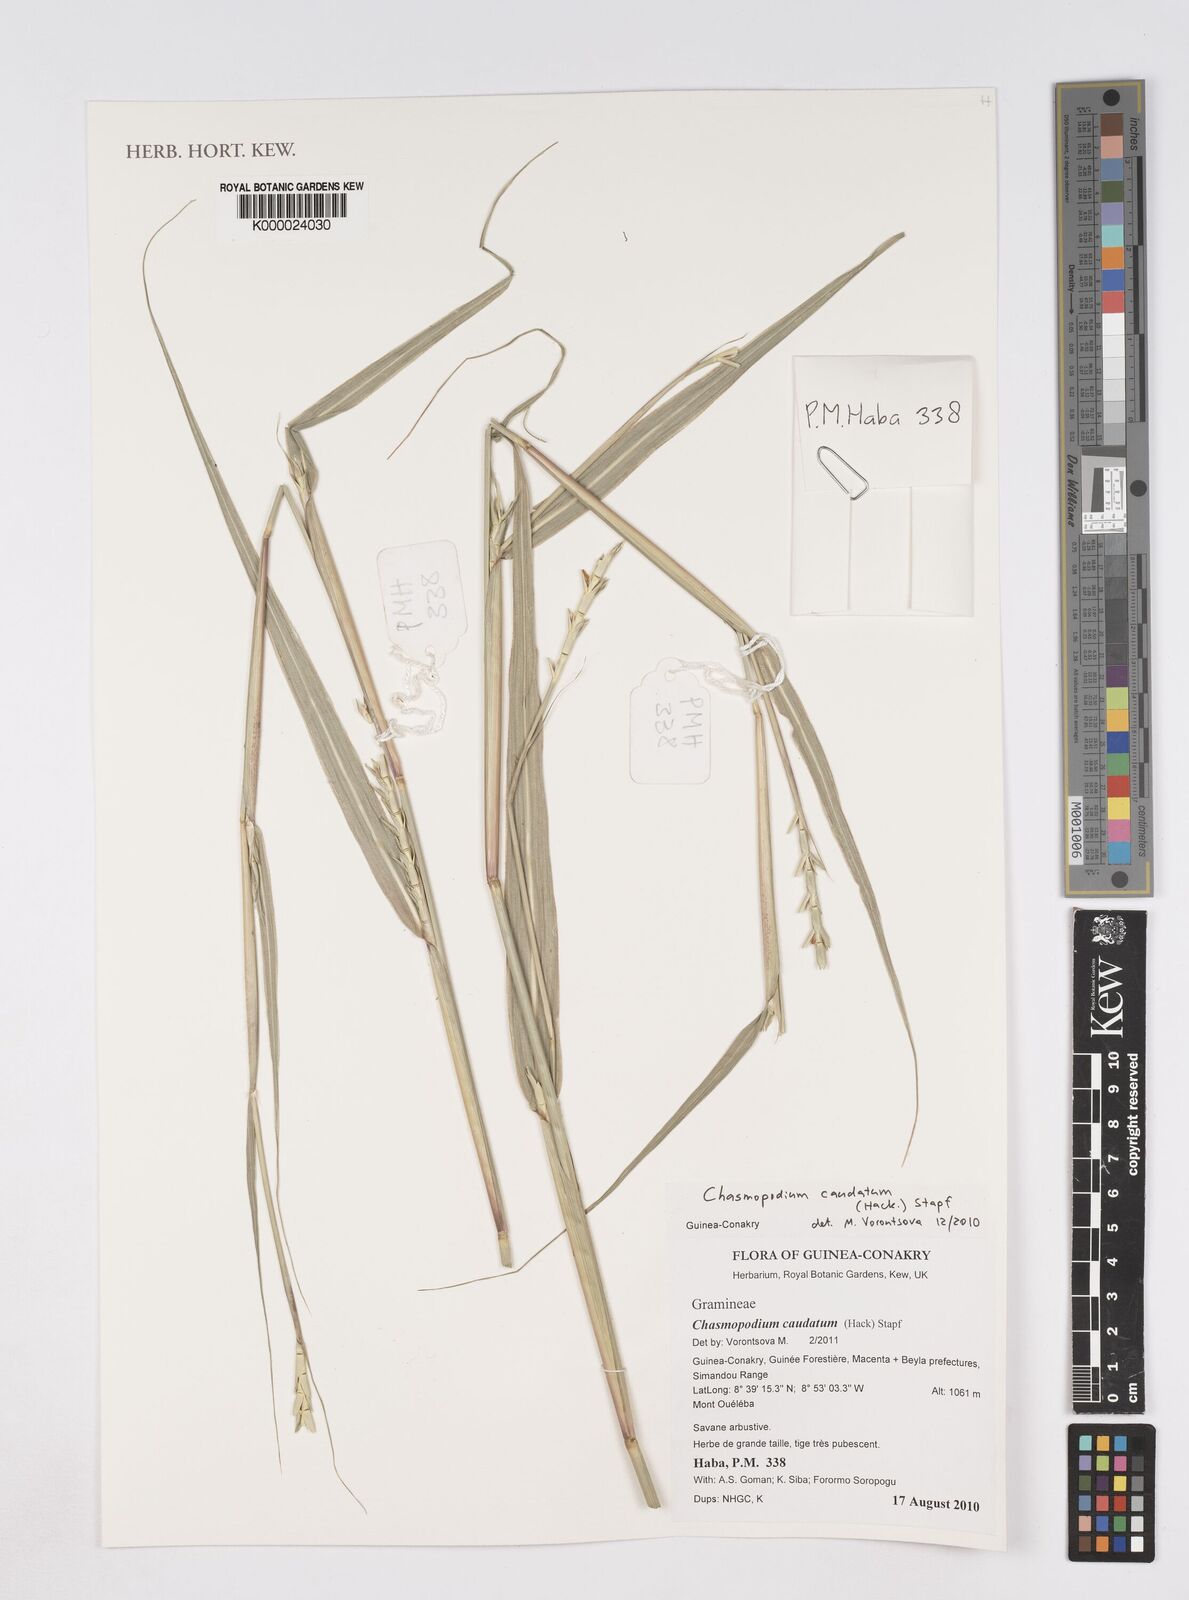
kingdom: Plantae
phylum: Tracheophyta
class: Liliopsida
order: Poales
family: Poaceae
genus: Chasmopodium
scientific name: Chasmopodium caudatum
